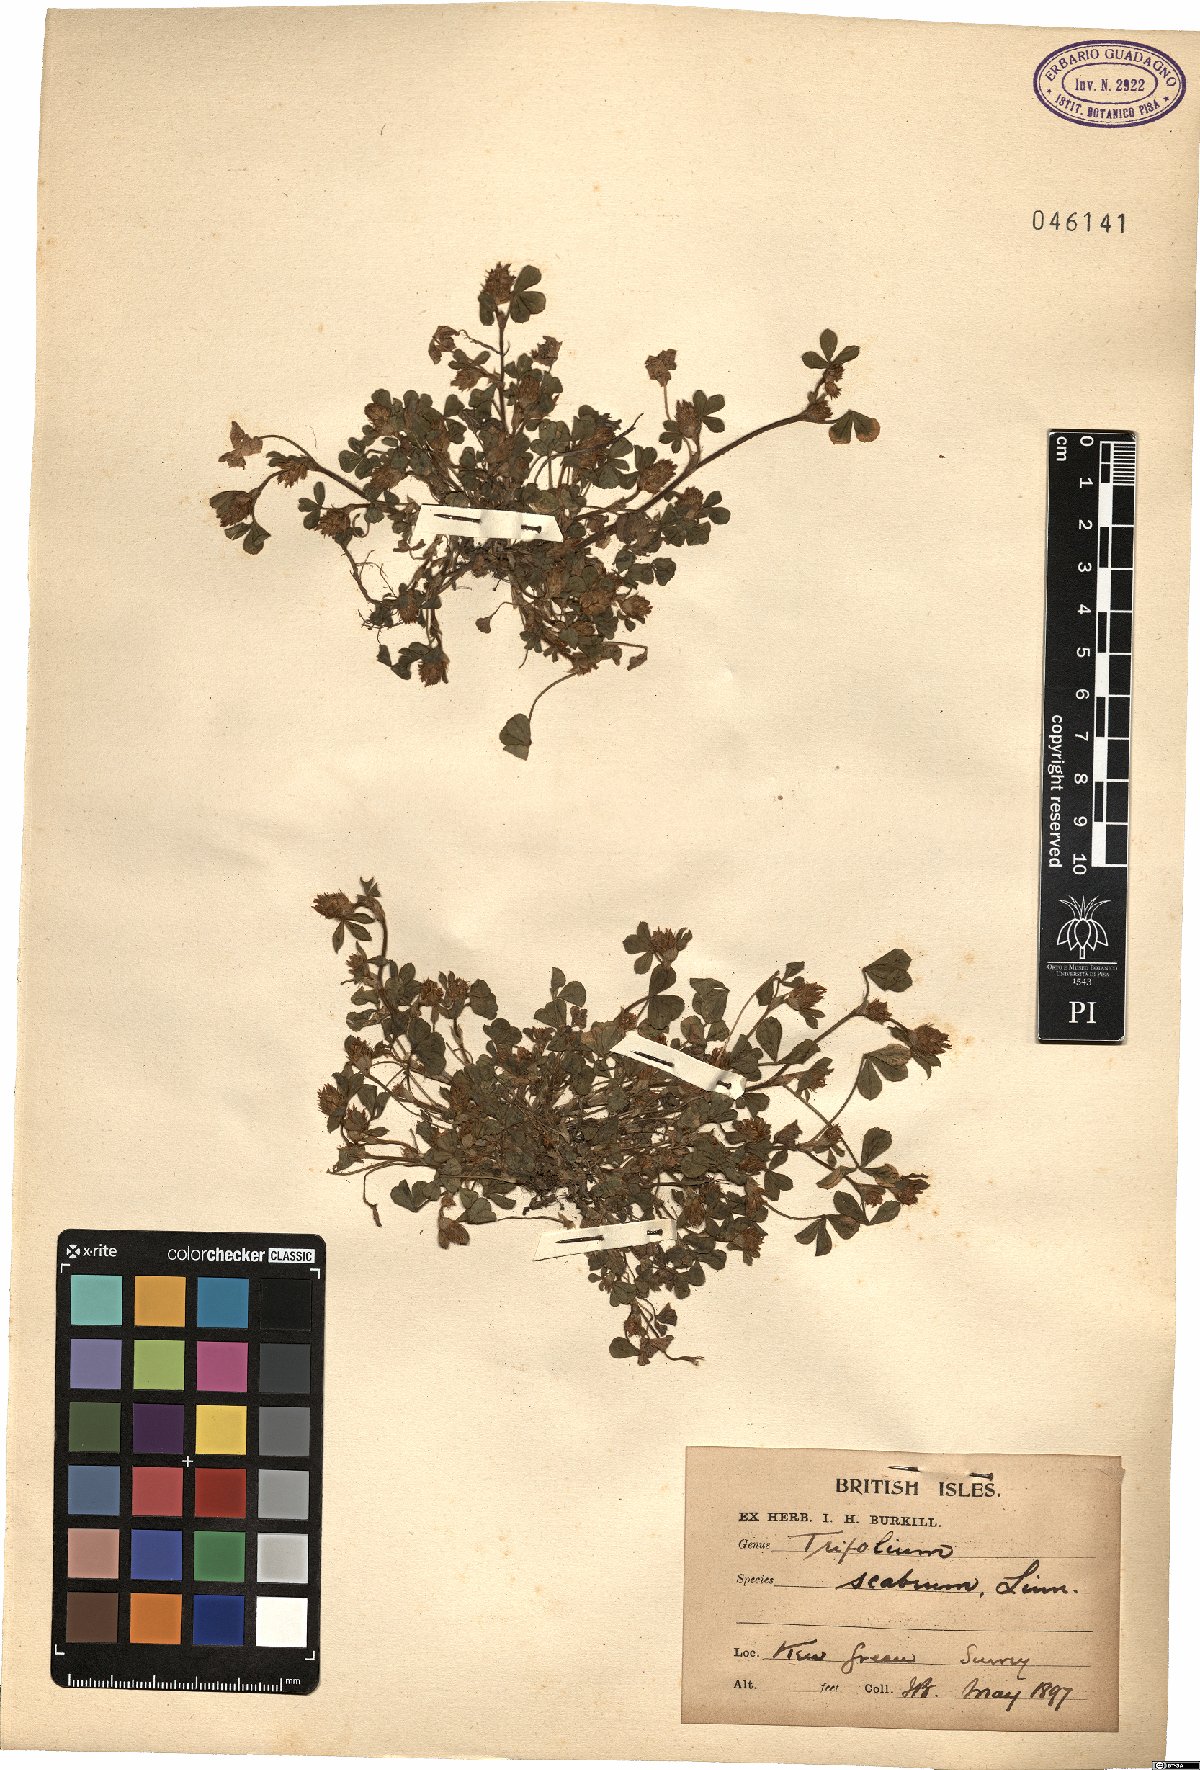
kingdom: Plantae
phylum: Tracheophyta
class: Magnoliopsida
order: Fabales
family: Fabaceae
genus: Trifolium
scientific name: Trifolium scabrum
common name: Rough clover
